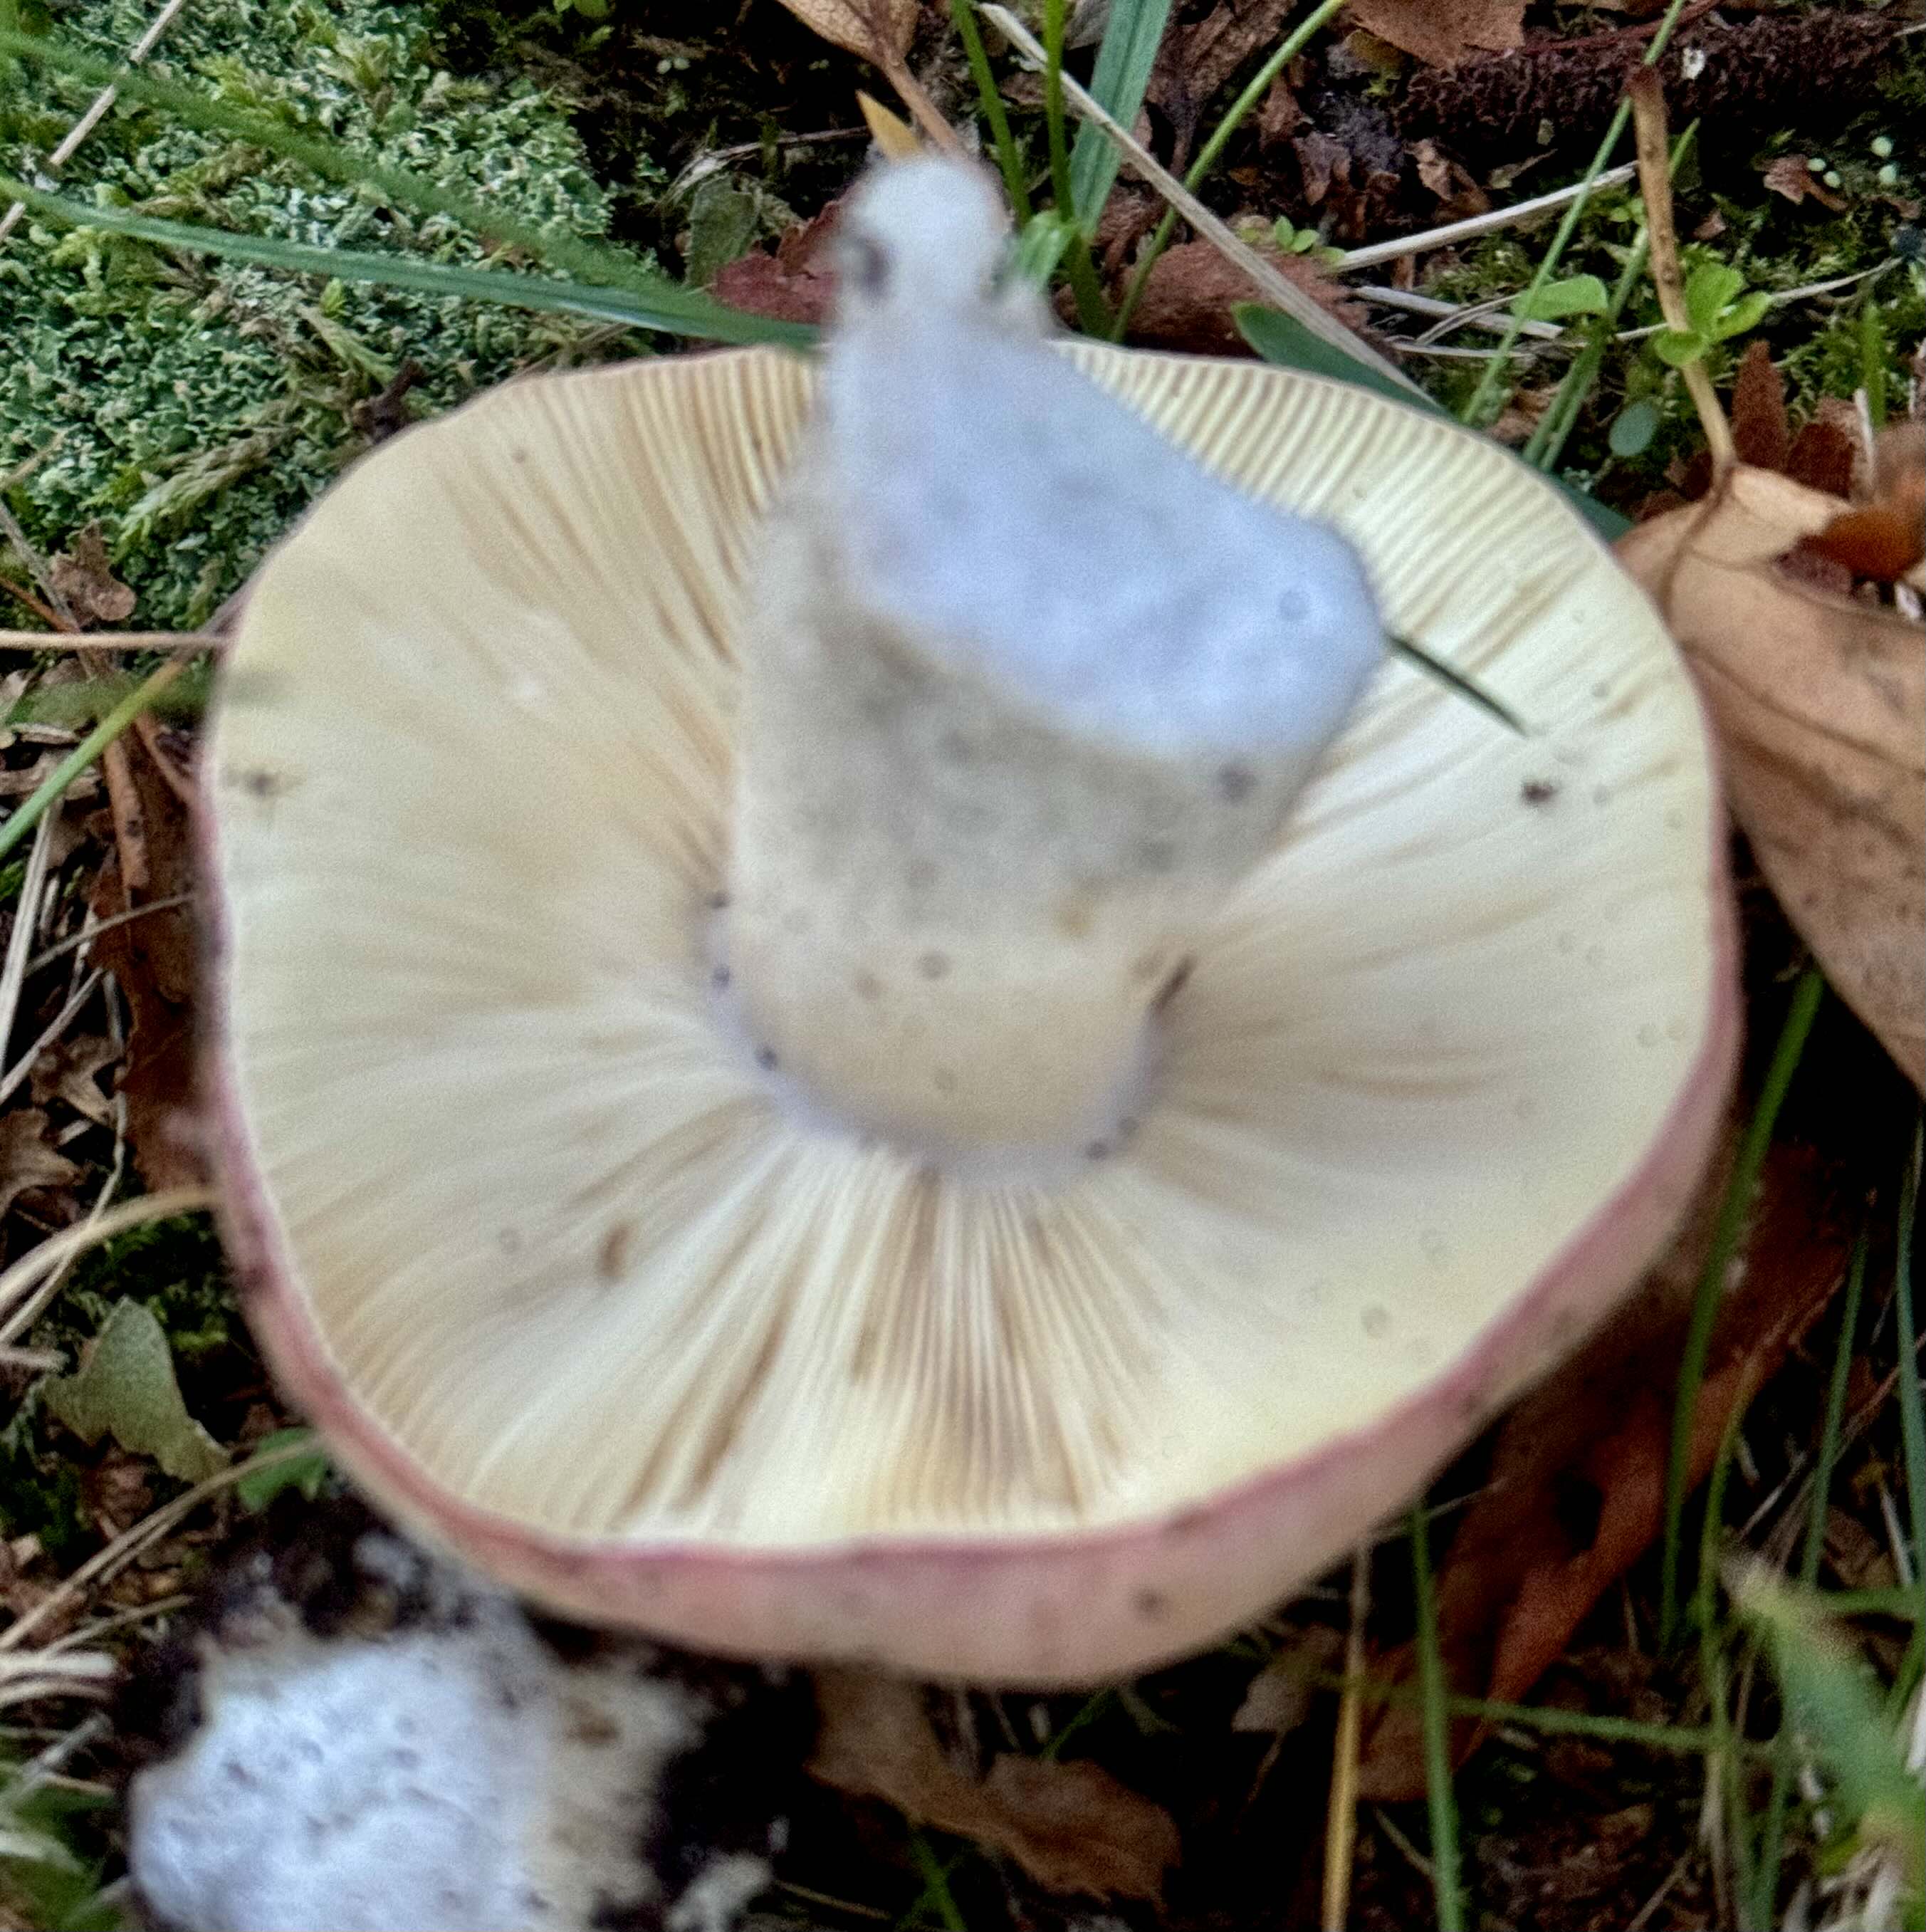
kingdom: Fungi
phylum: Basidiomycota
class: Agaricomycetes
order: Russulales
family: Russulaceae
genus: Russula
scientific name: Russula depallens
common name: falmende skørhat
